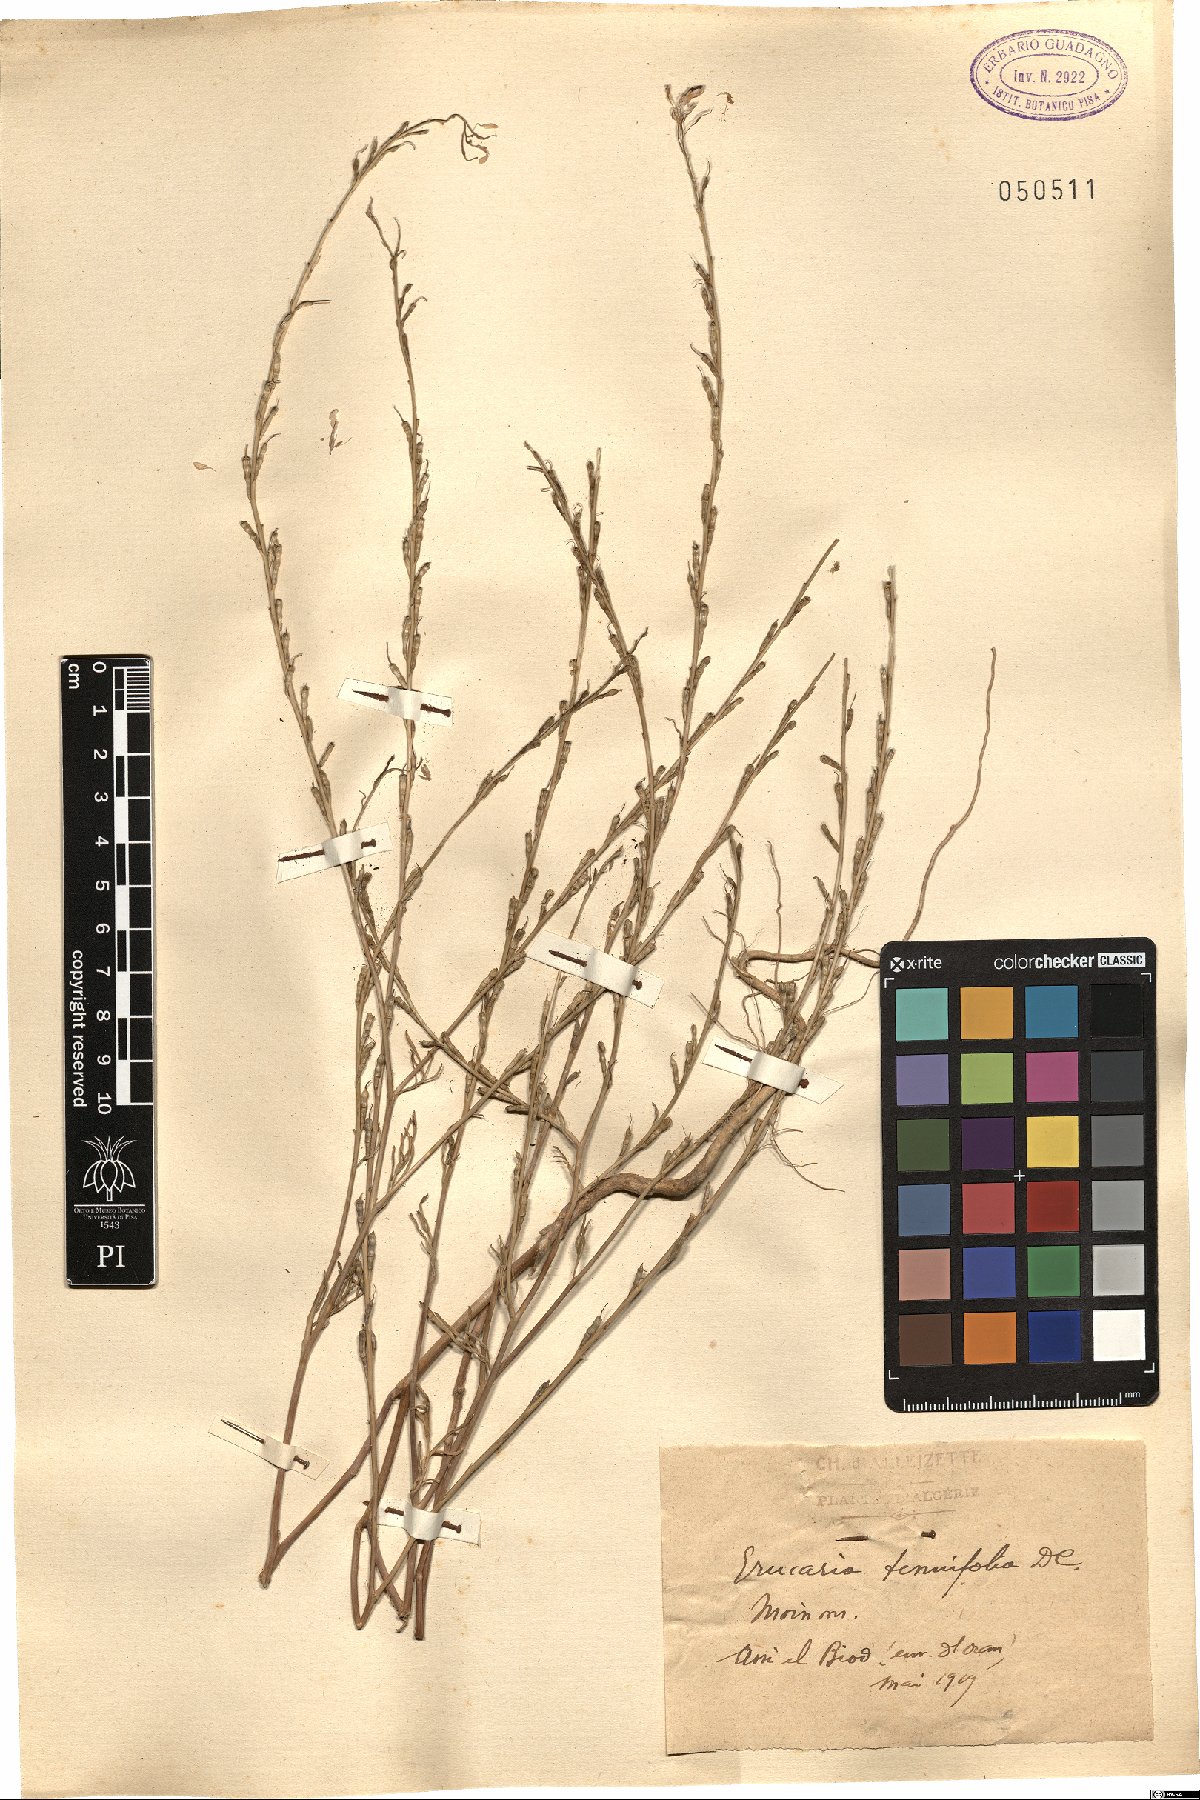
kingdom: Plantae
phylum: Tracheophyta
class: Magnoliopsida
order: Brassicales
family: Brassicaceae
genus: Erucaria
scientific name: Erucaria hispanica
